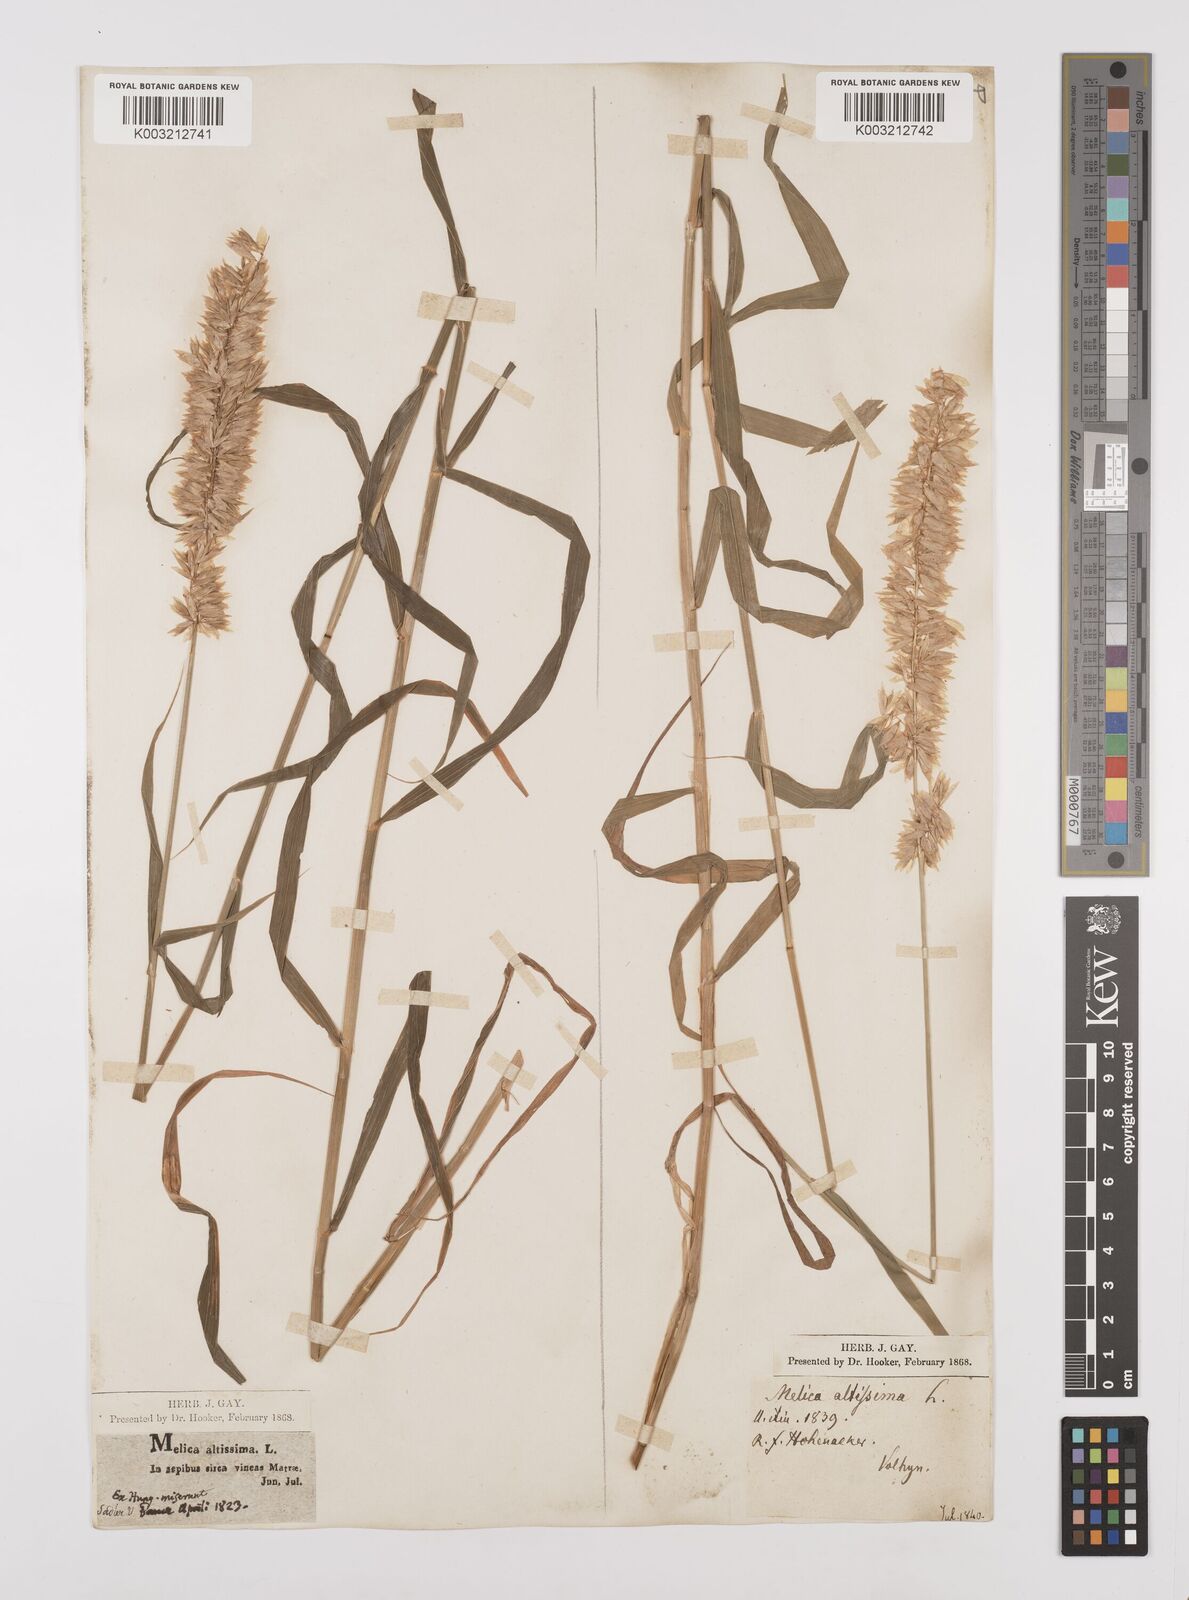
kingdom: Plantae
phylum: Tracheophyta
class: Liliopsida
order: Poales
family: Poaceae
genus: Melica
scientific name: Melica altissima
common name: Siberian melicgrass
